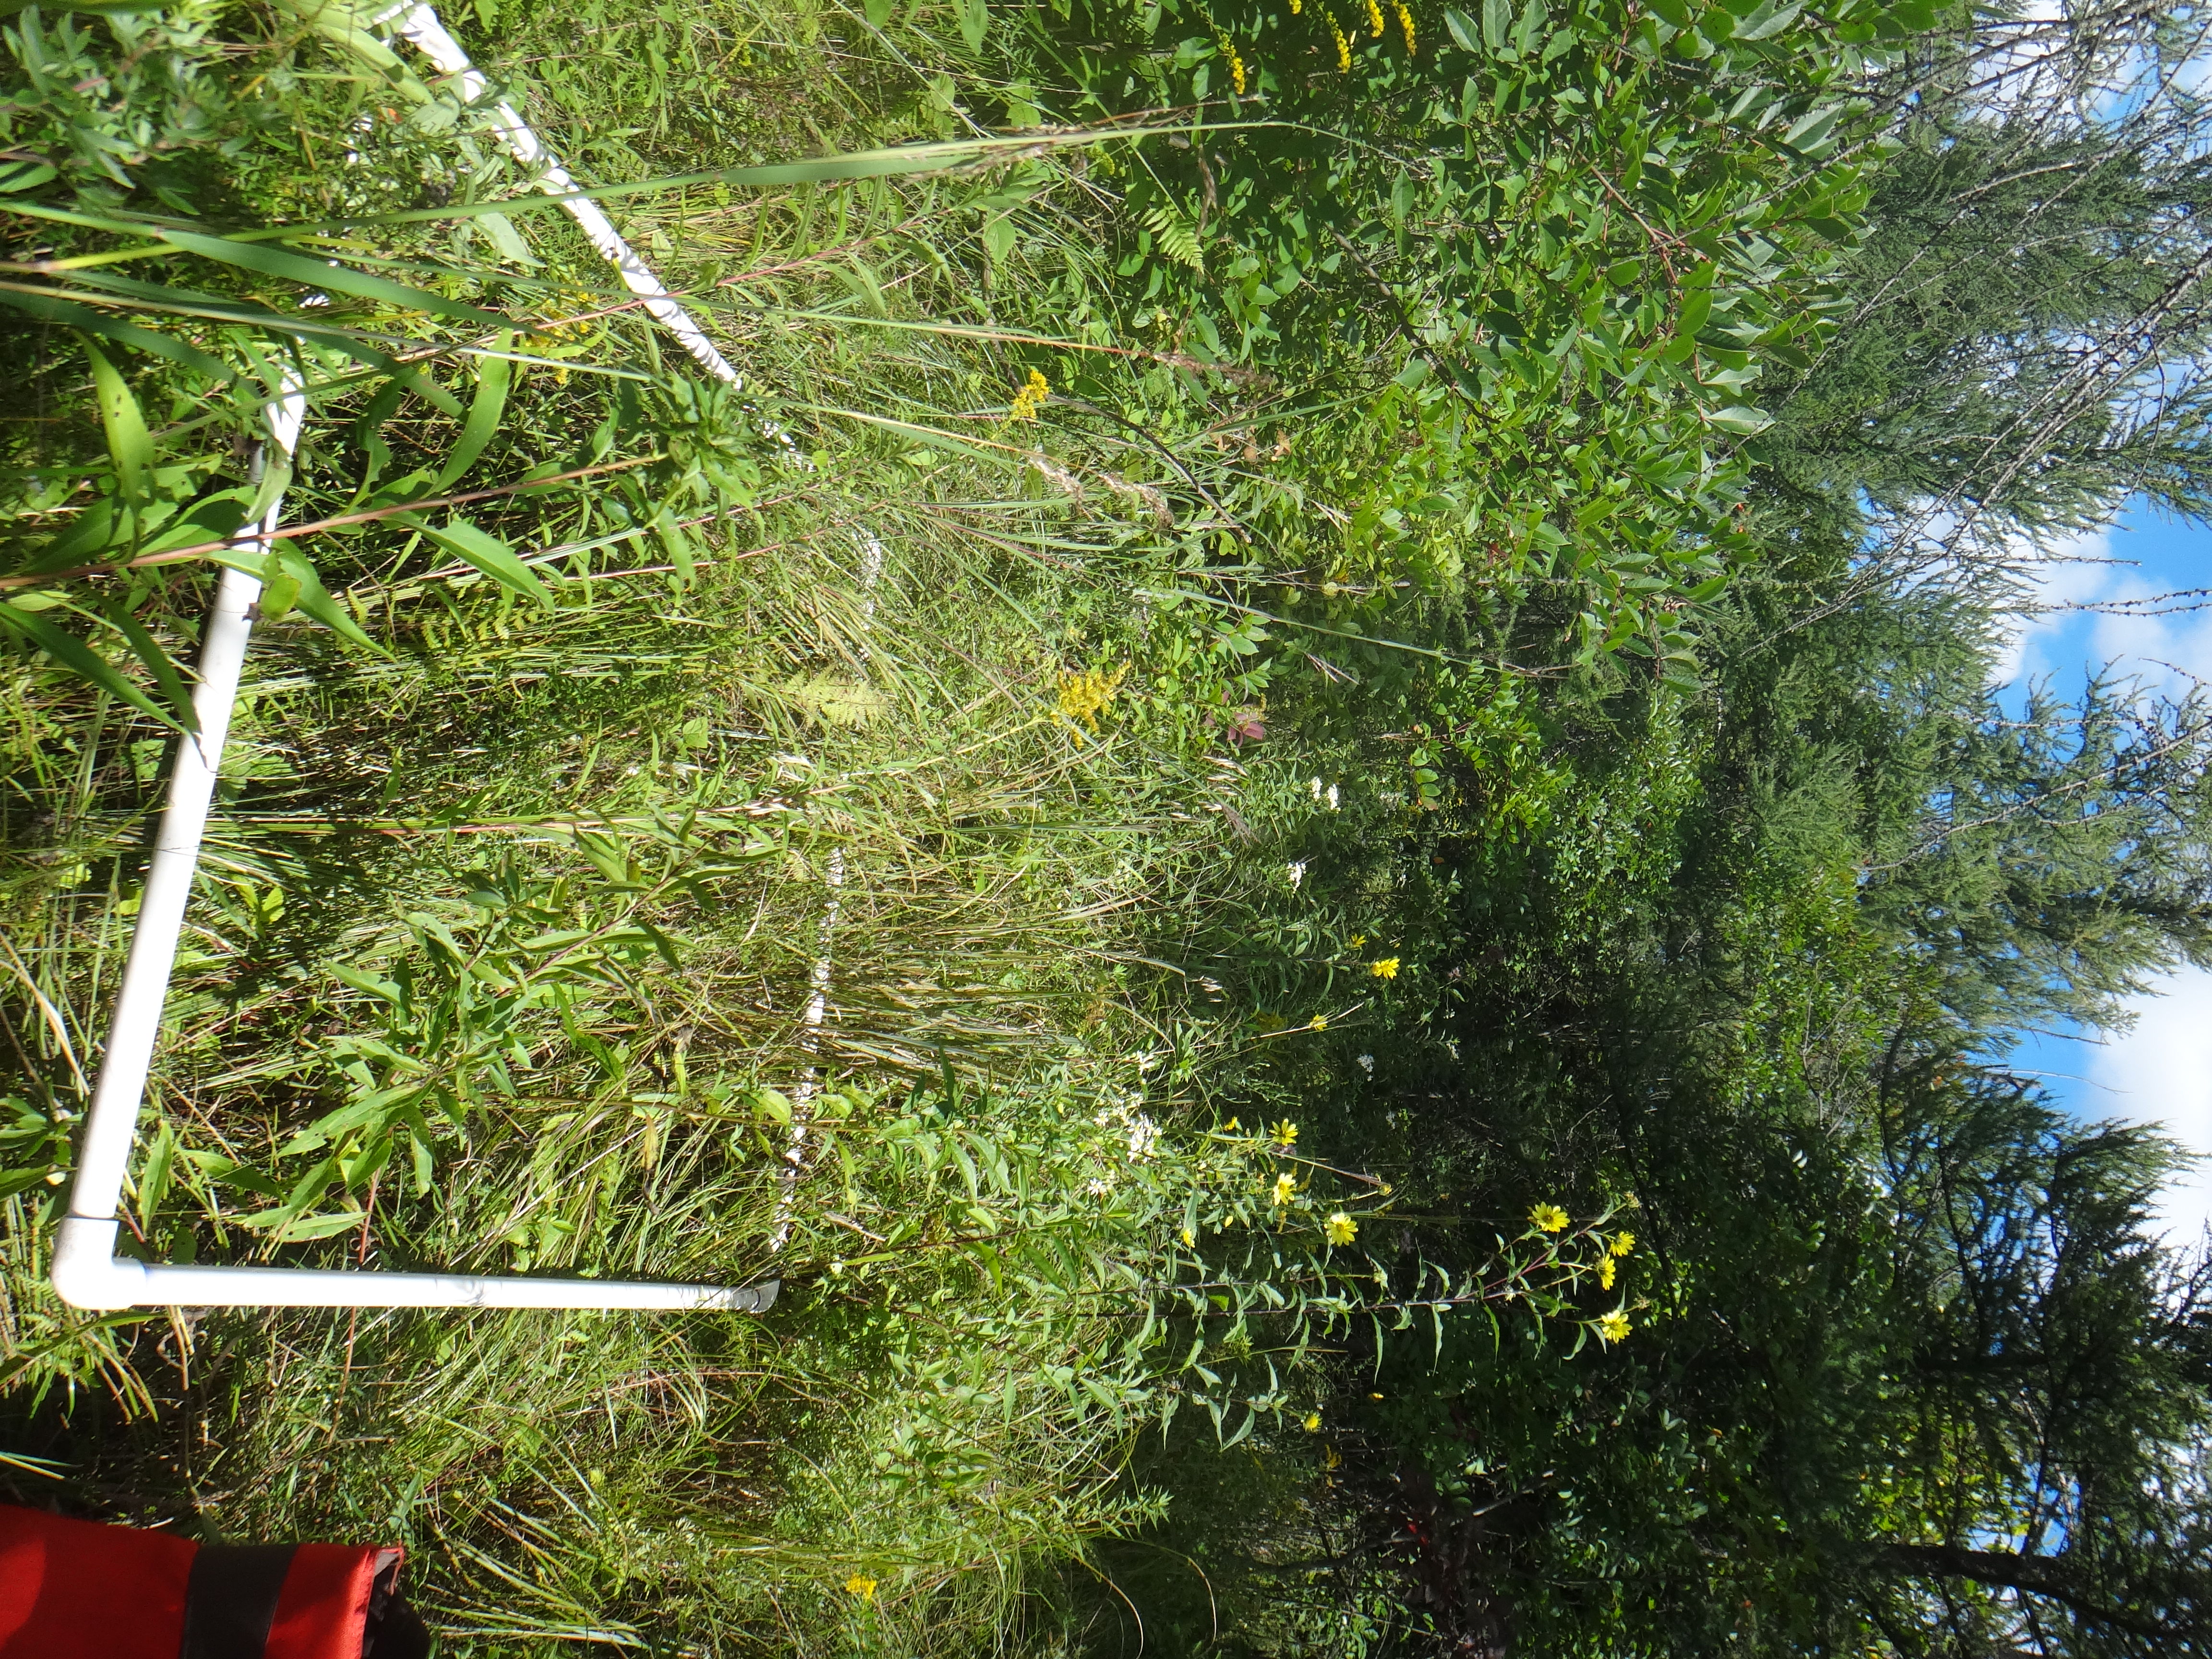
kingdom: Plantae
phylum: Tracheophyta
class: Magnoliopsida
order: Asterales
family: Asteraceae
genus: Doellingeria
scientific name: Doellingeria umbellata
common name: Flat-top white aster
